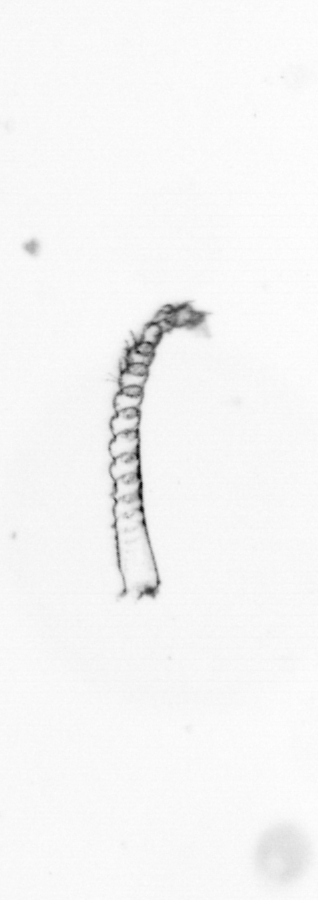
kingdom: Chromista
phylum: Ochrophyta
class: Bacillariophyceae
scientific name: Bacillariophyceae
